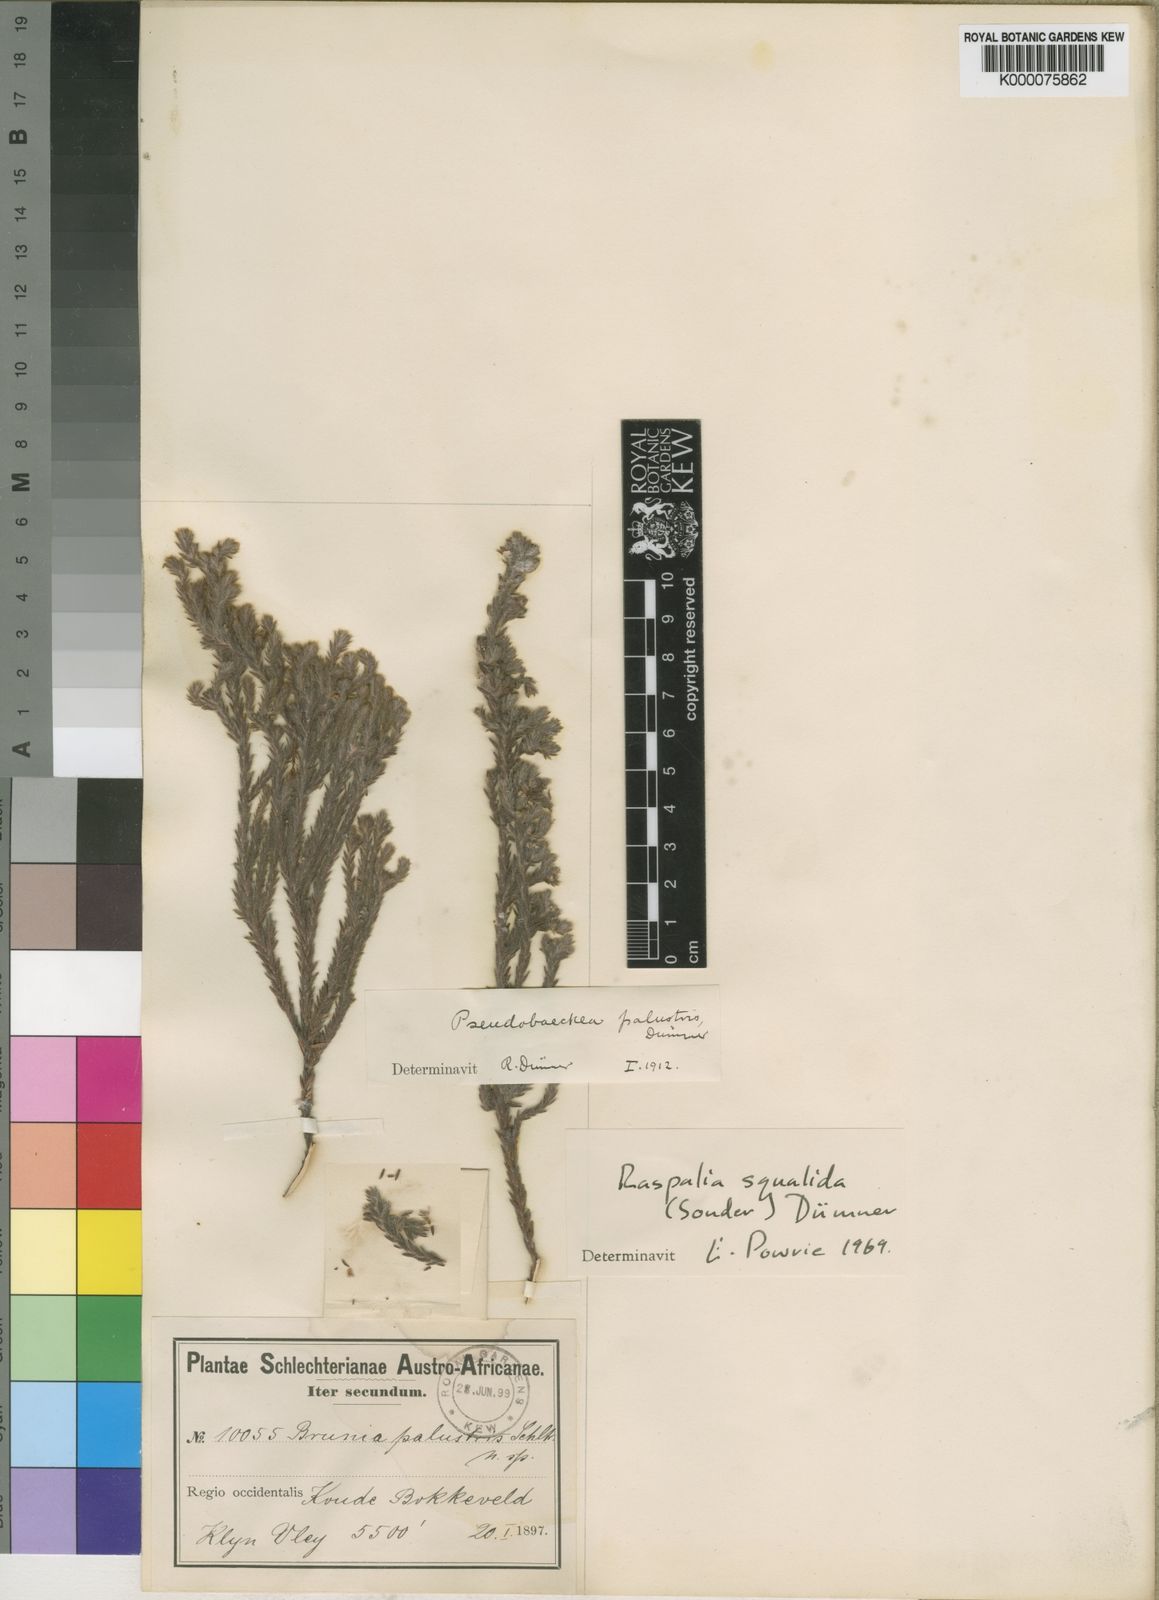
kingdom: Plantae
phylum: Tracheophyta
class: Magnoliopsida
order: Bruniales
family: Bruniaceae
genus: Brunia
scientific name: Brunia palustris
